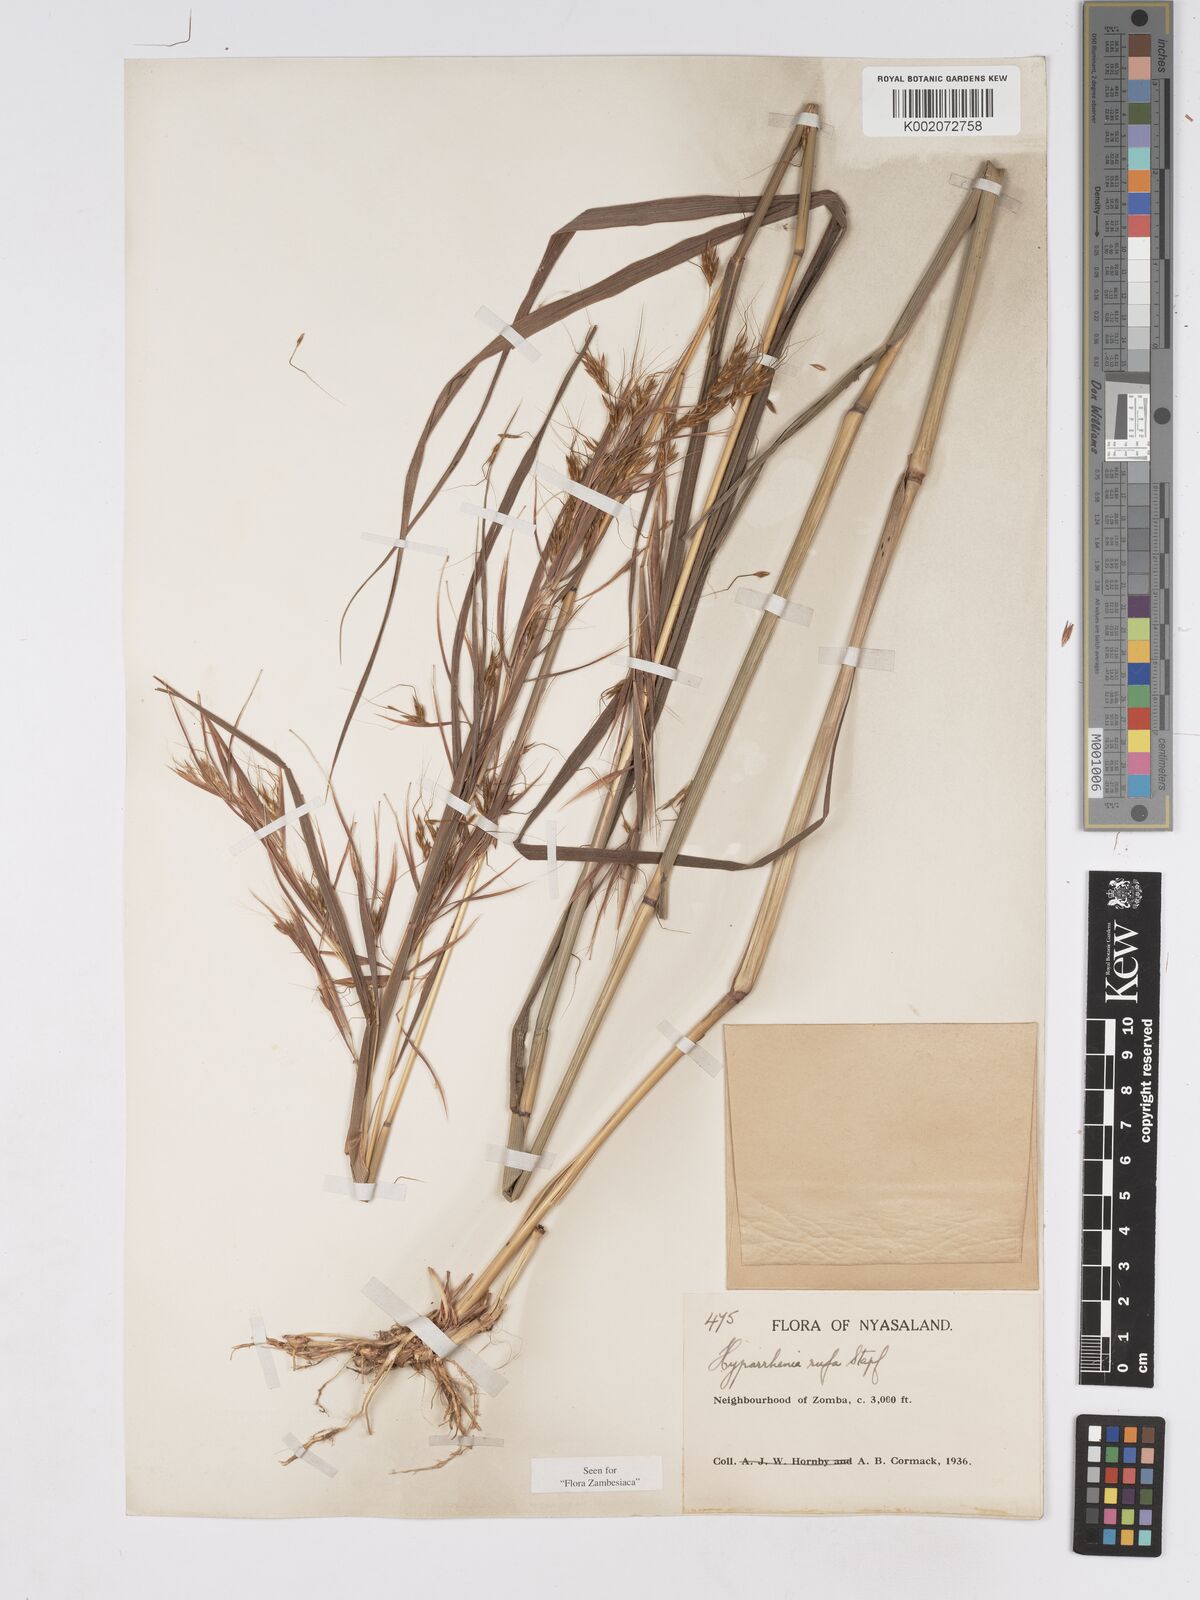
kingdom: Plantae
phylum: Tracheophyta
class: Liliopsida
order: Poales
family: Poaceae
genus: Hyparrhenia
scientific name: Hyparrhenia rufa
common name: Jaraguagrass
